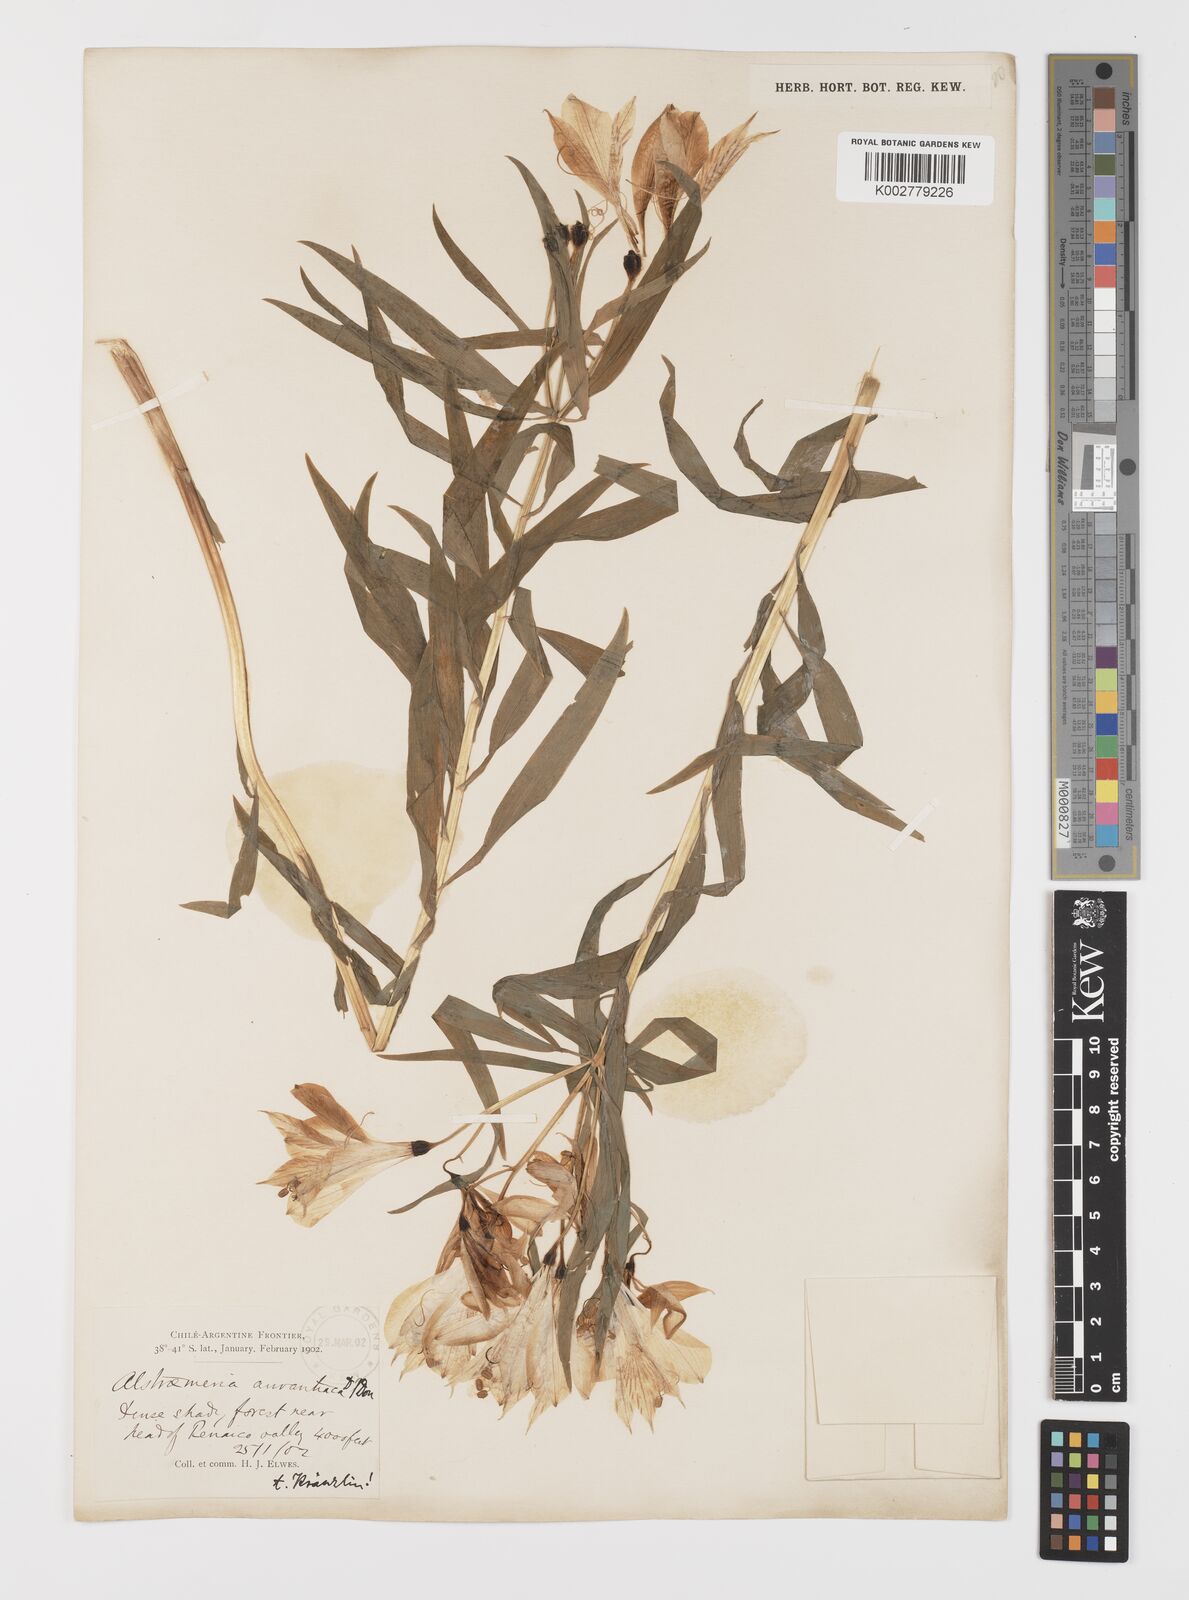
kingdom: Plantae
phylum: Tracheophyta
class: Liliopsida
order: Liliales
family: Alstroemeriaceae
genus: Alstroemeria
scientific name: Alstroemeria aurea
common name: Peruvian lily
